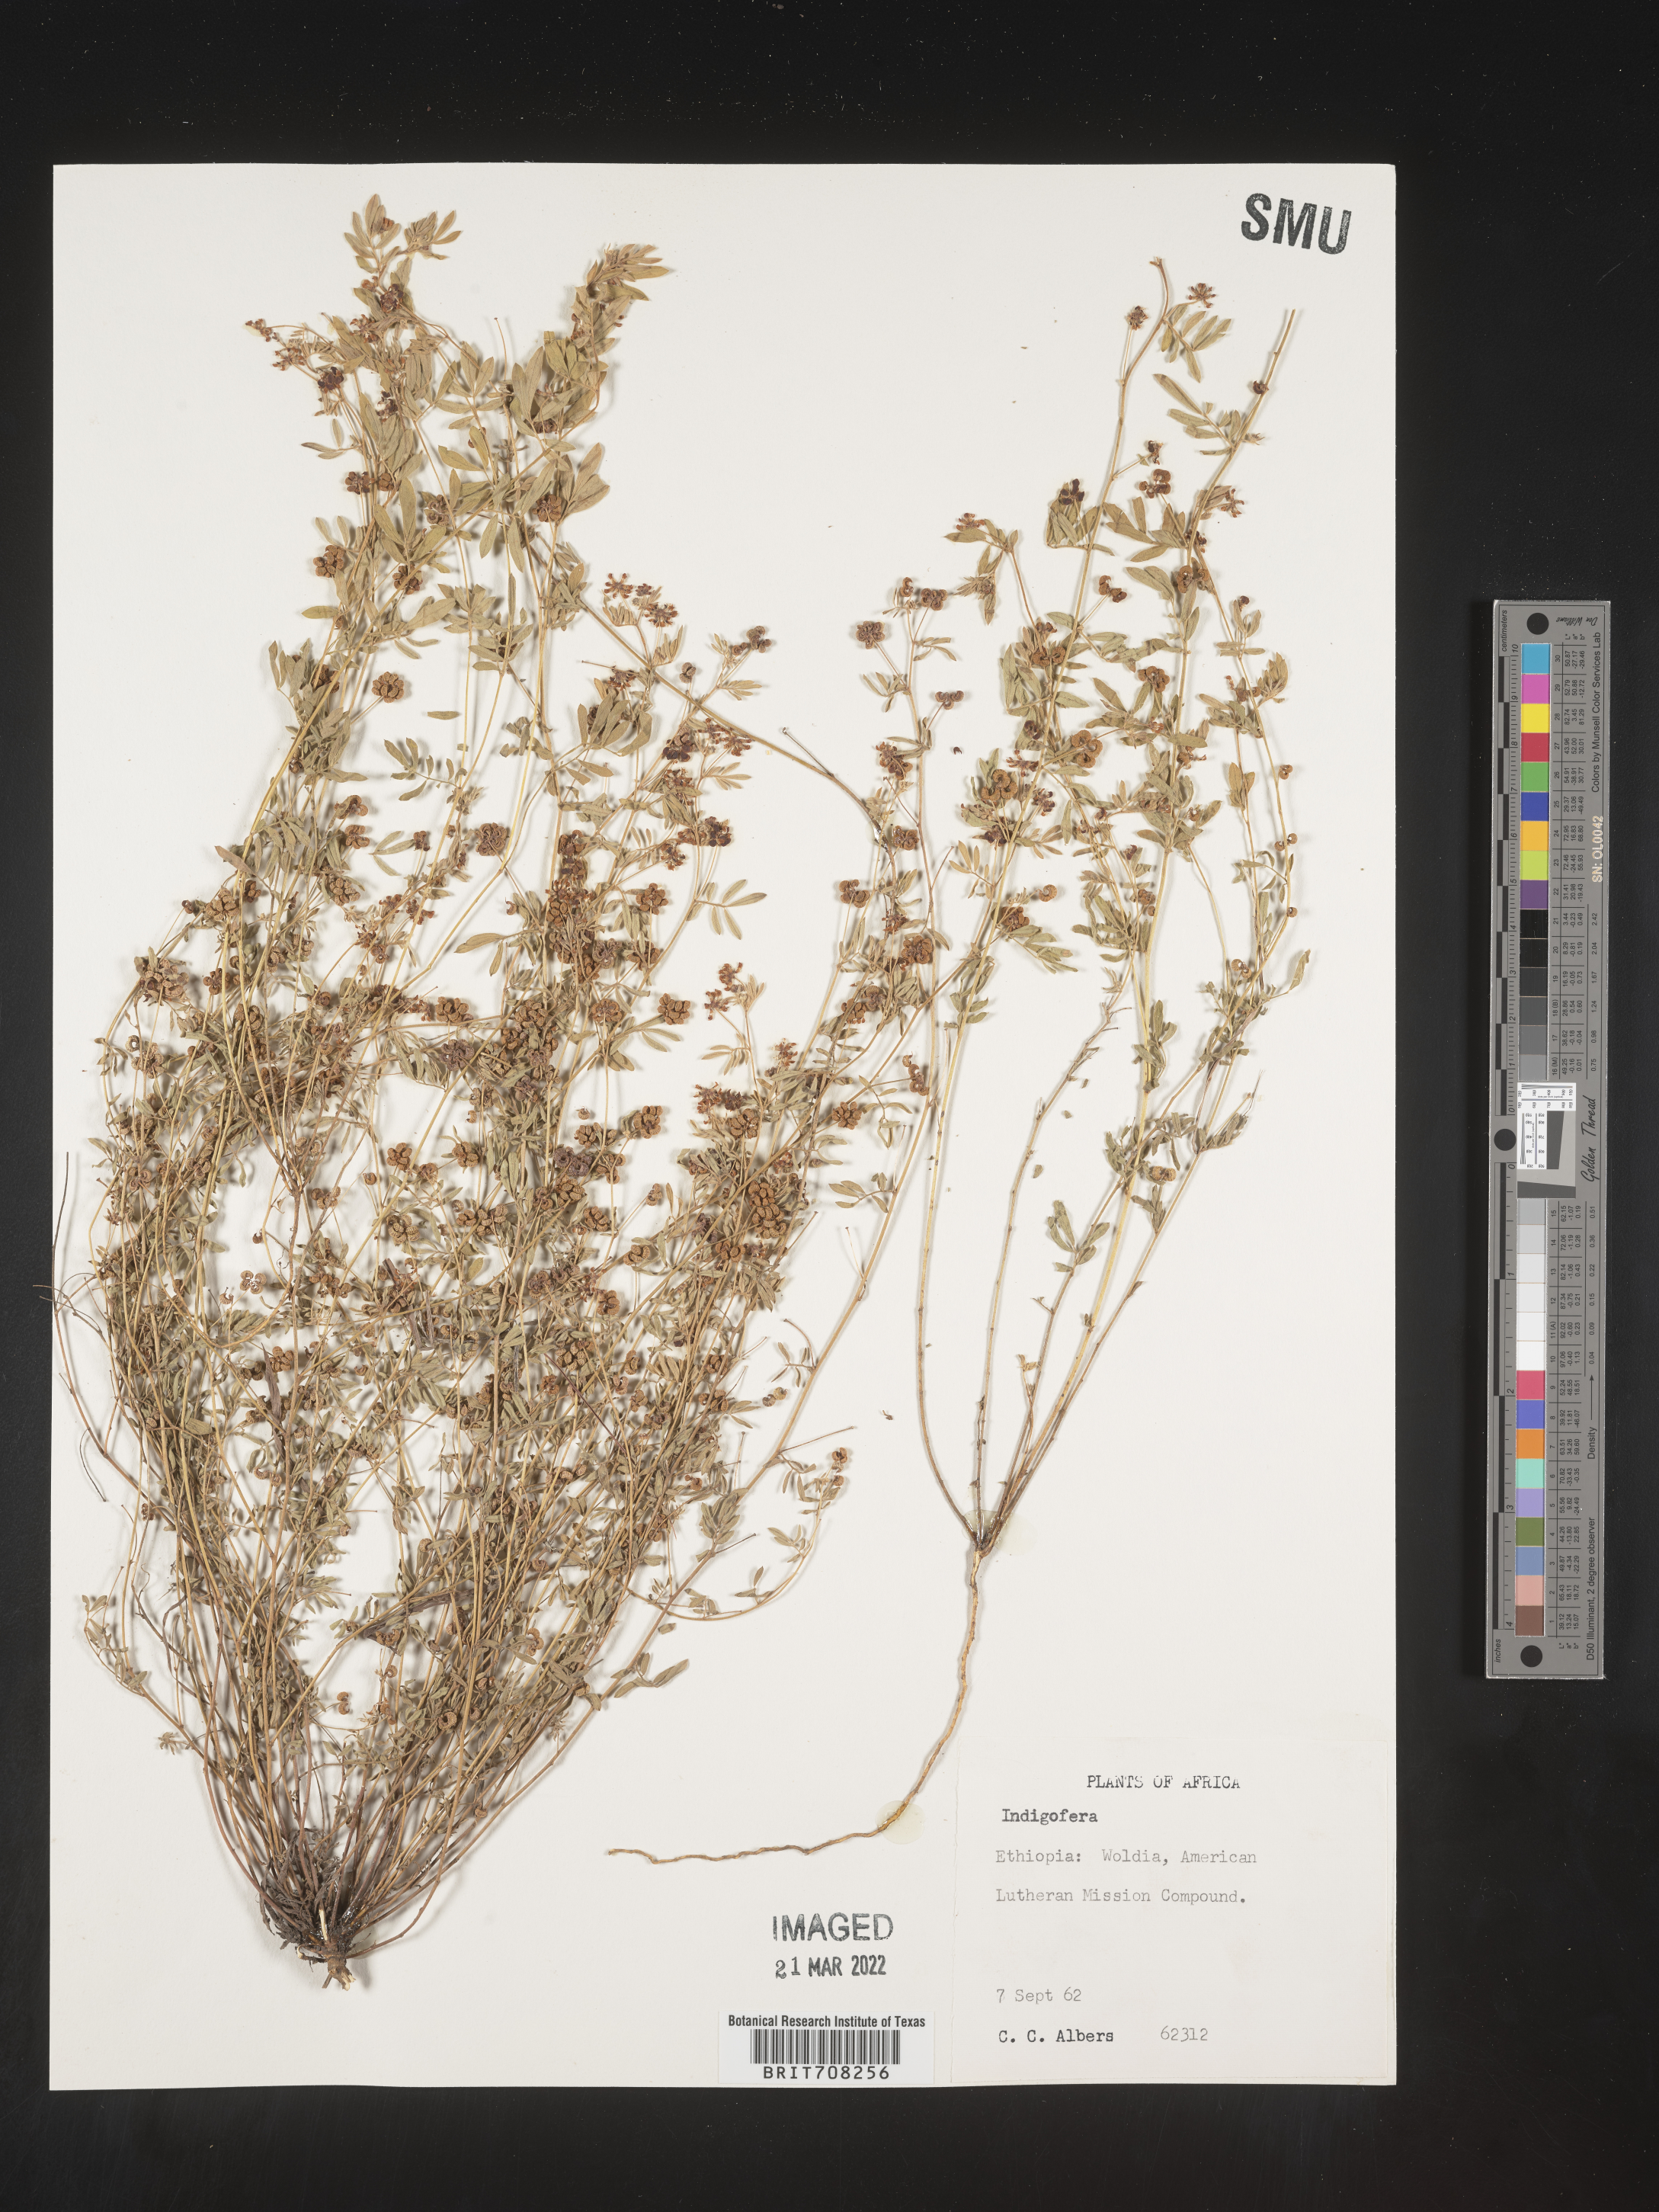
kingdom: Plantae
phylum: Tracheophyta
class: Magnoliopsida
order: Fabales
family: Fabaceae
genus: Indigofera
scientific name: Indigofera
